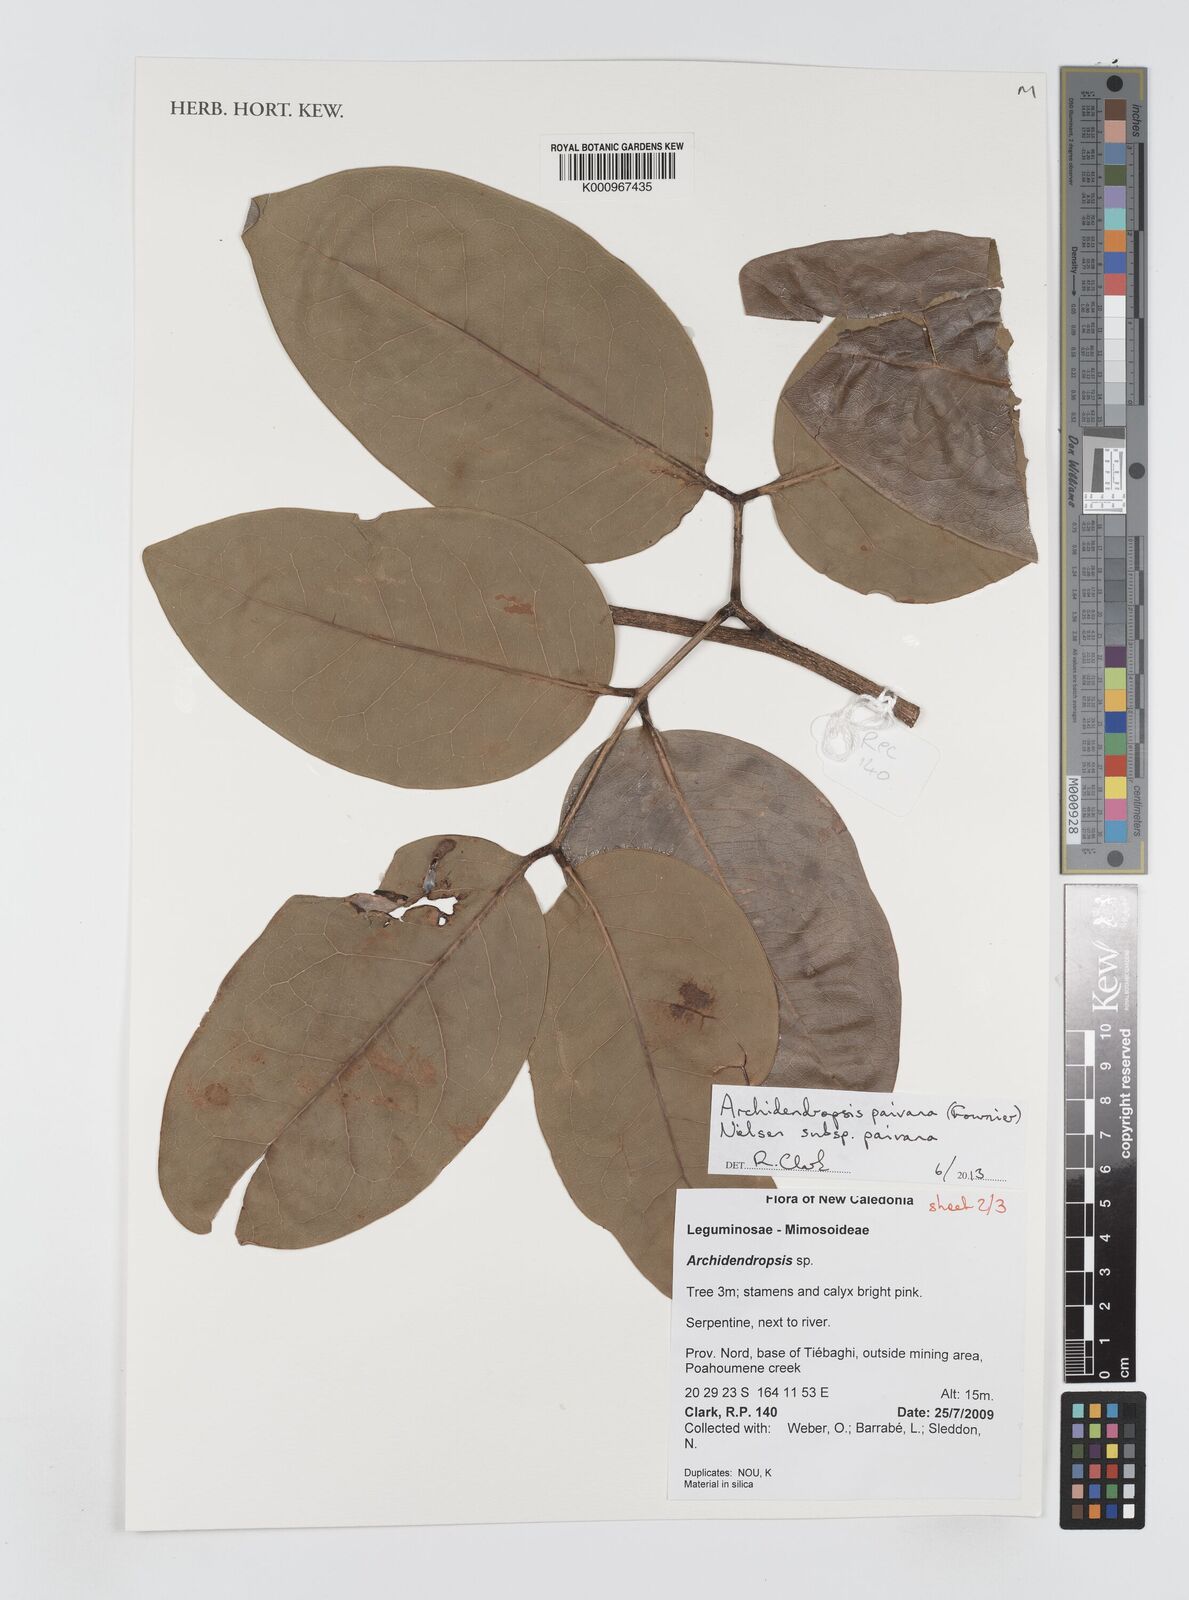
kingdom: Plantae
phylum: Tracheophyta
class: Magnoliopsida
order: Fabales
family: Fabaceae
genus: Archidendropsis
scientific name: Archidendropsis paivana
